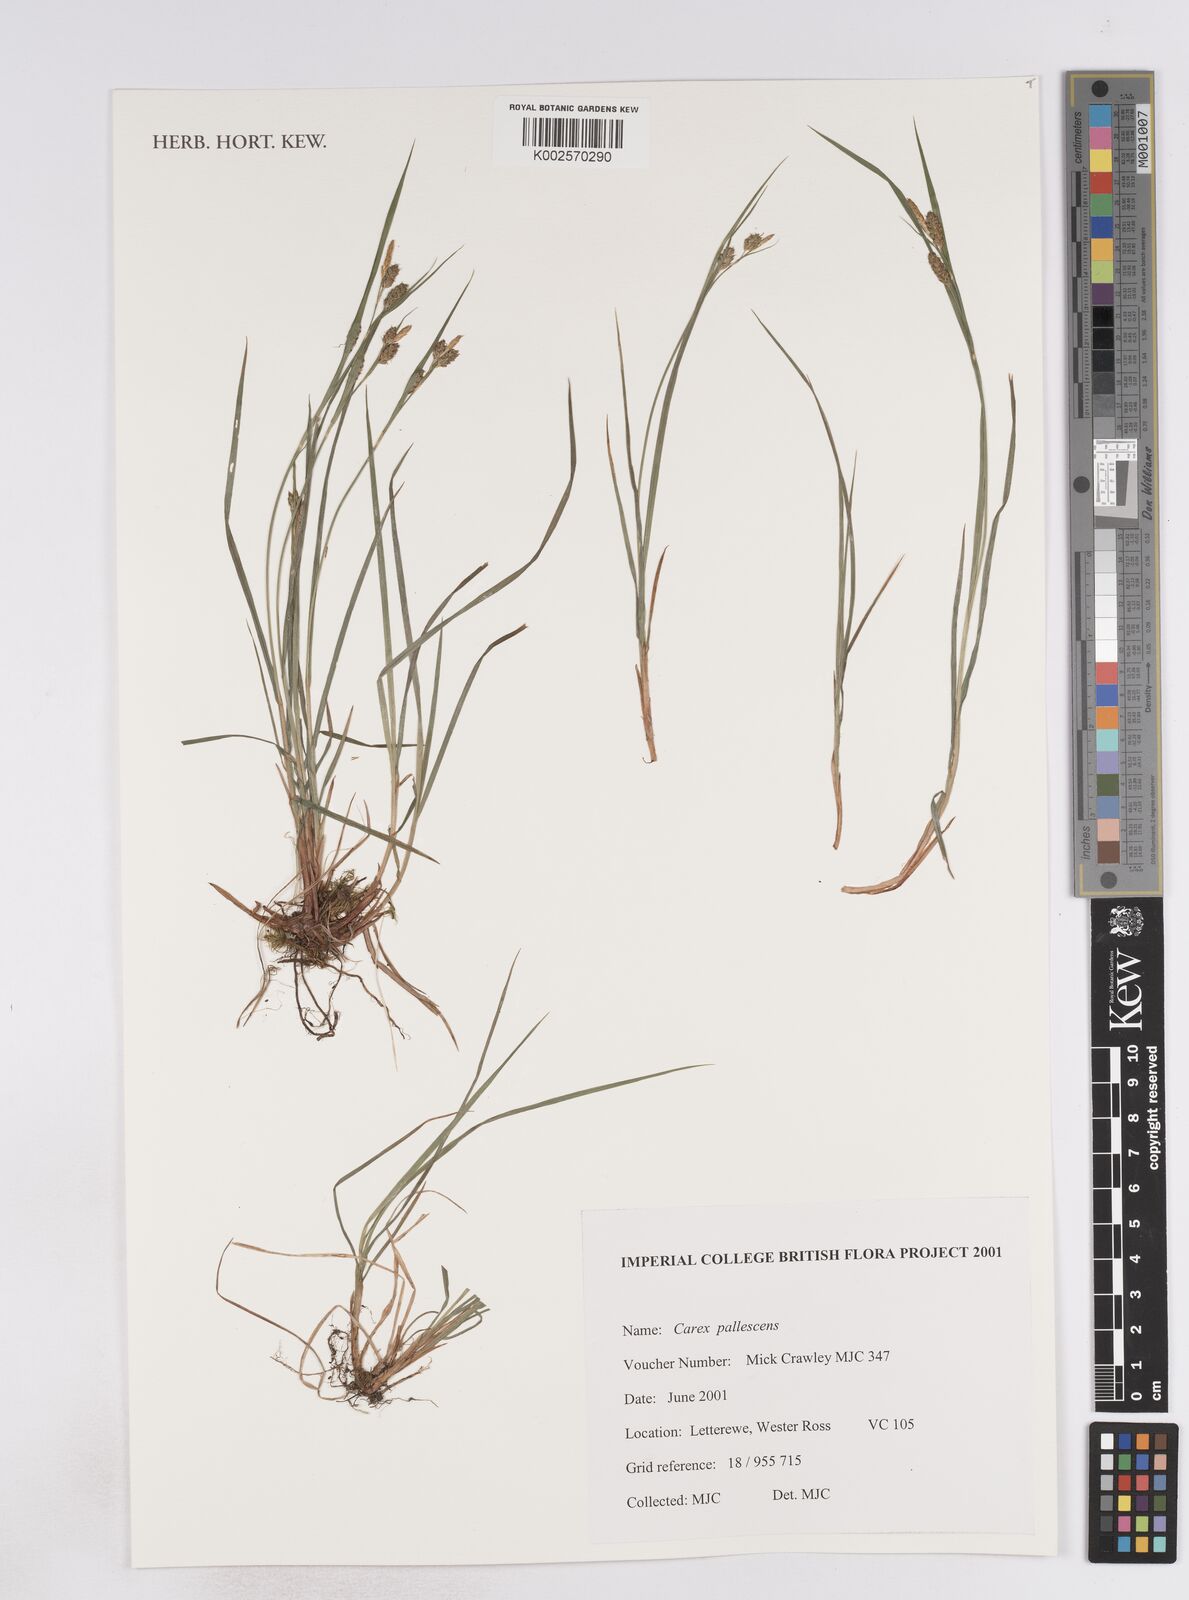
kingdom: Plantae
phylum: Tracheophyta
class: Liliopsida
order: Poales
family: Cyperaceae
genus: Carex
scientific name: Carex pallescens
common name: Pale sedge
